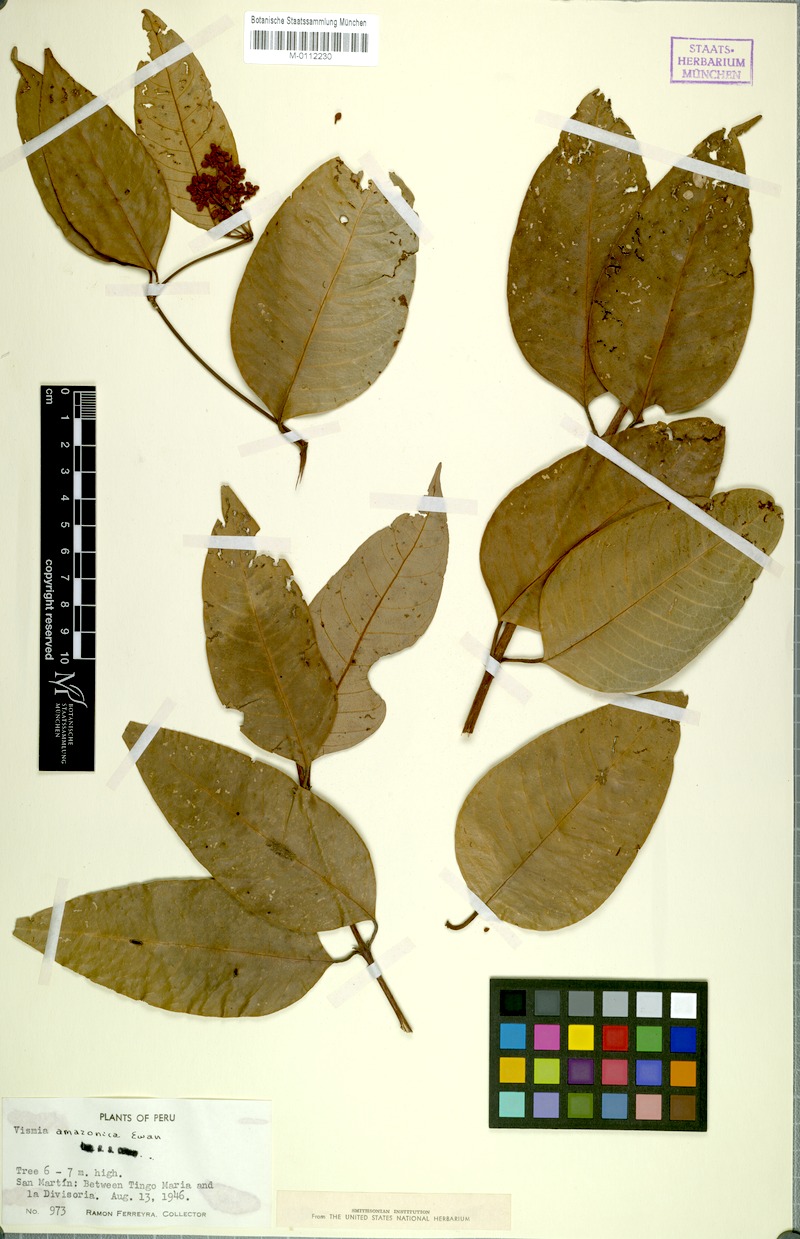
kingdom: Plantae
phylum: Tracheophyta
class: Magnoliopsida
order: Malpighiales
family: Hypericaceae
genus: Vismia
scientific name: Vismia gracilis
